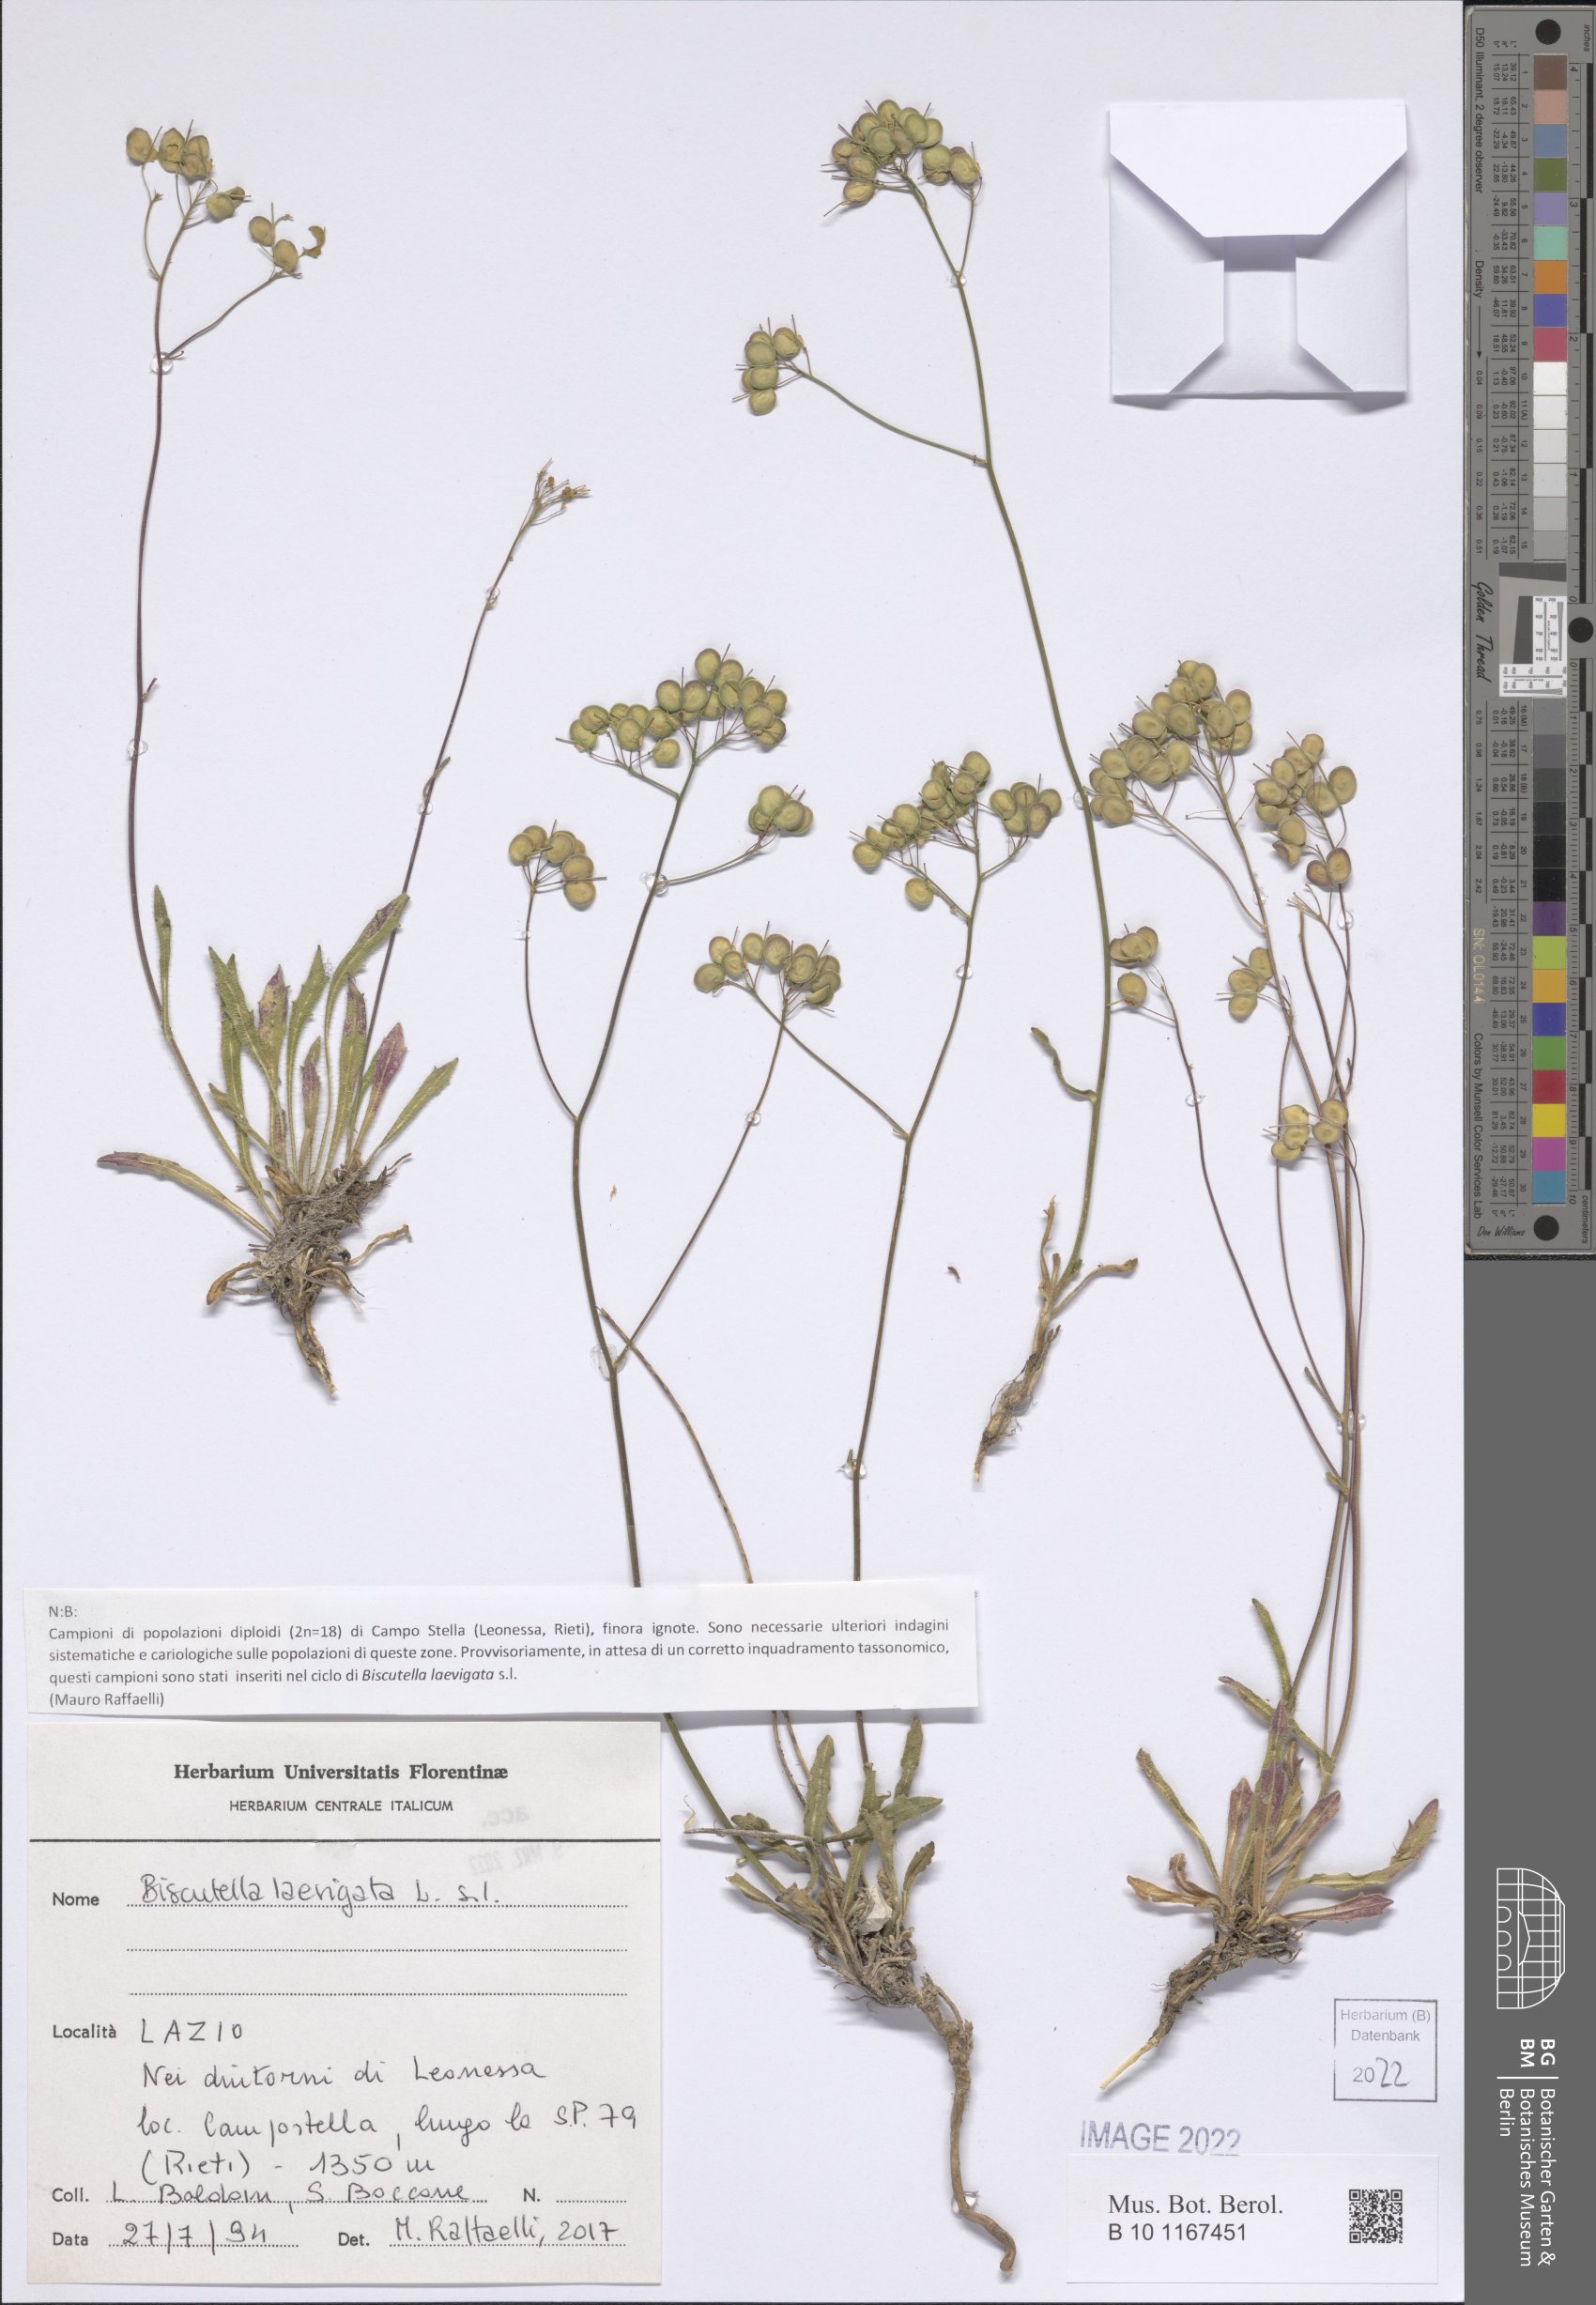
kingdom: Plantae
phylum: Tracheophyta
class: Magnoliopsida
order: Brassicales
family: Brassicaceae
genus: Biscutella
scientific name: Biscutella laevigata
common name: Buckler mustard
